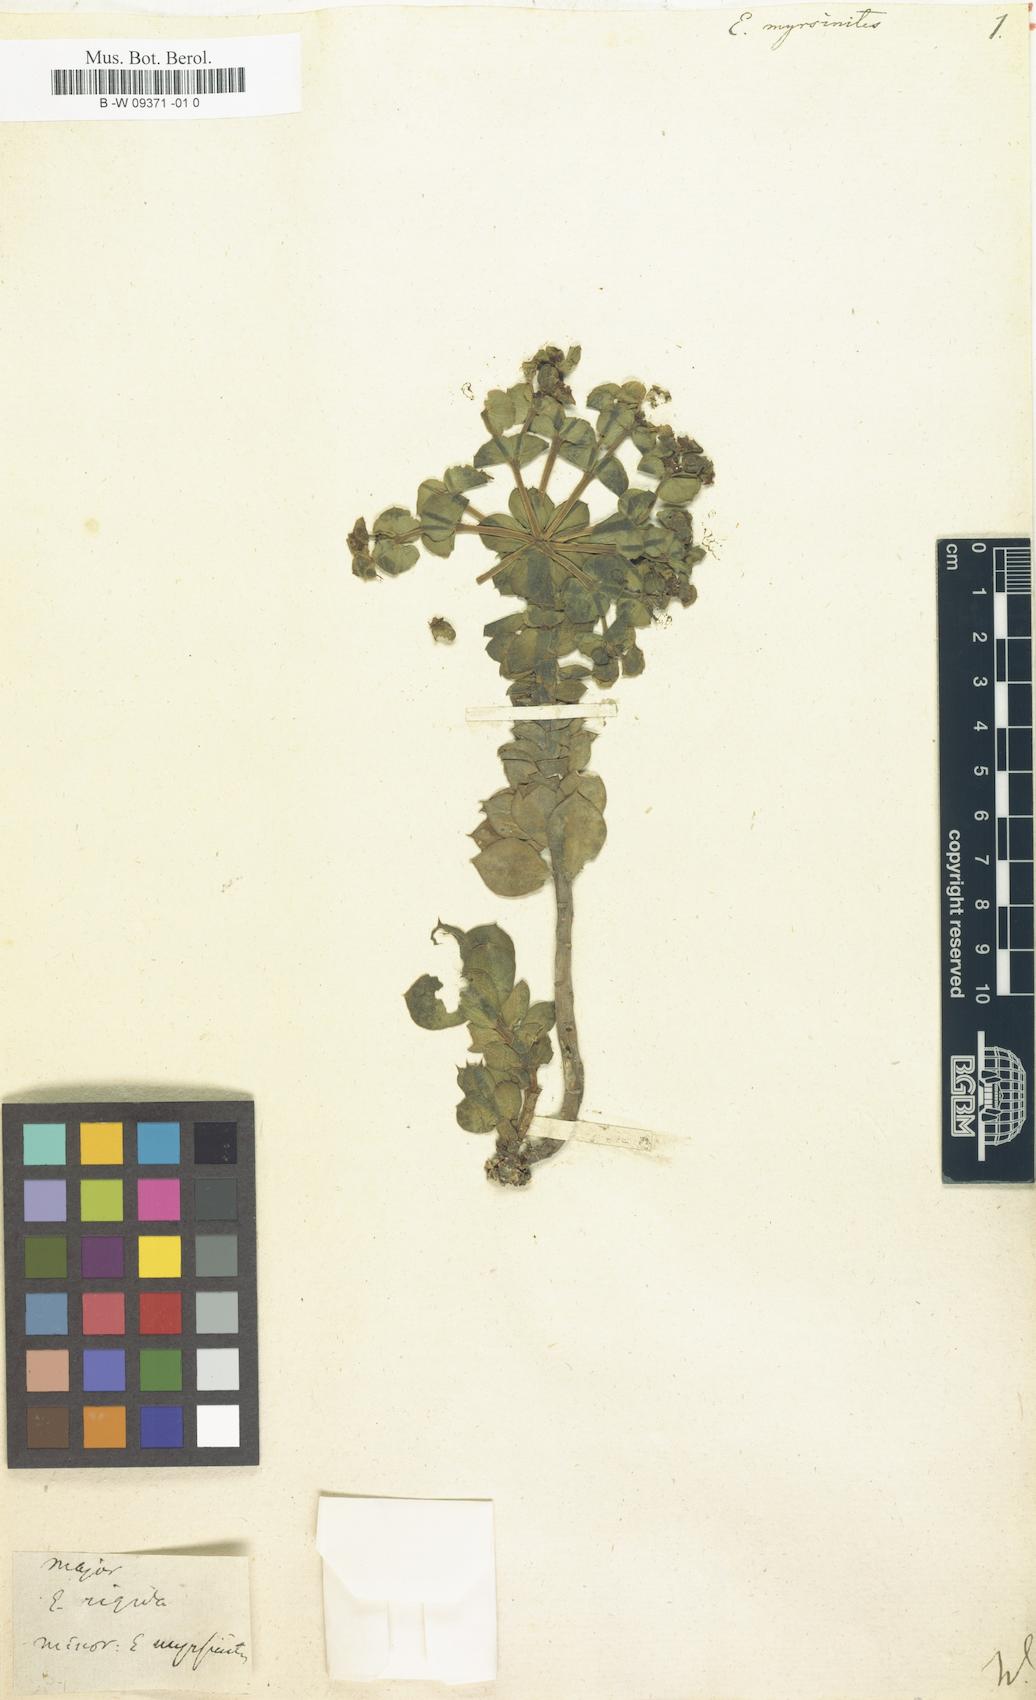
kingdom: Plantae
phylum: Tracheophyta
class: Magnoliopsida
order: Malpighiales
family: Euphorbiaceae
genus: Euphorbia
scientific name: Euphorbia myrsinites
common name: Myrtle spurge
